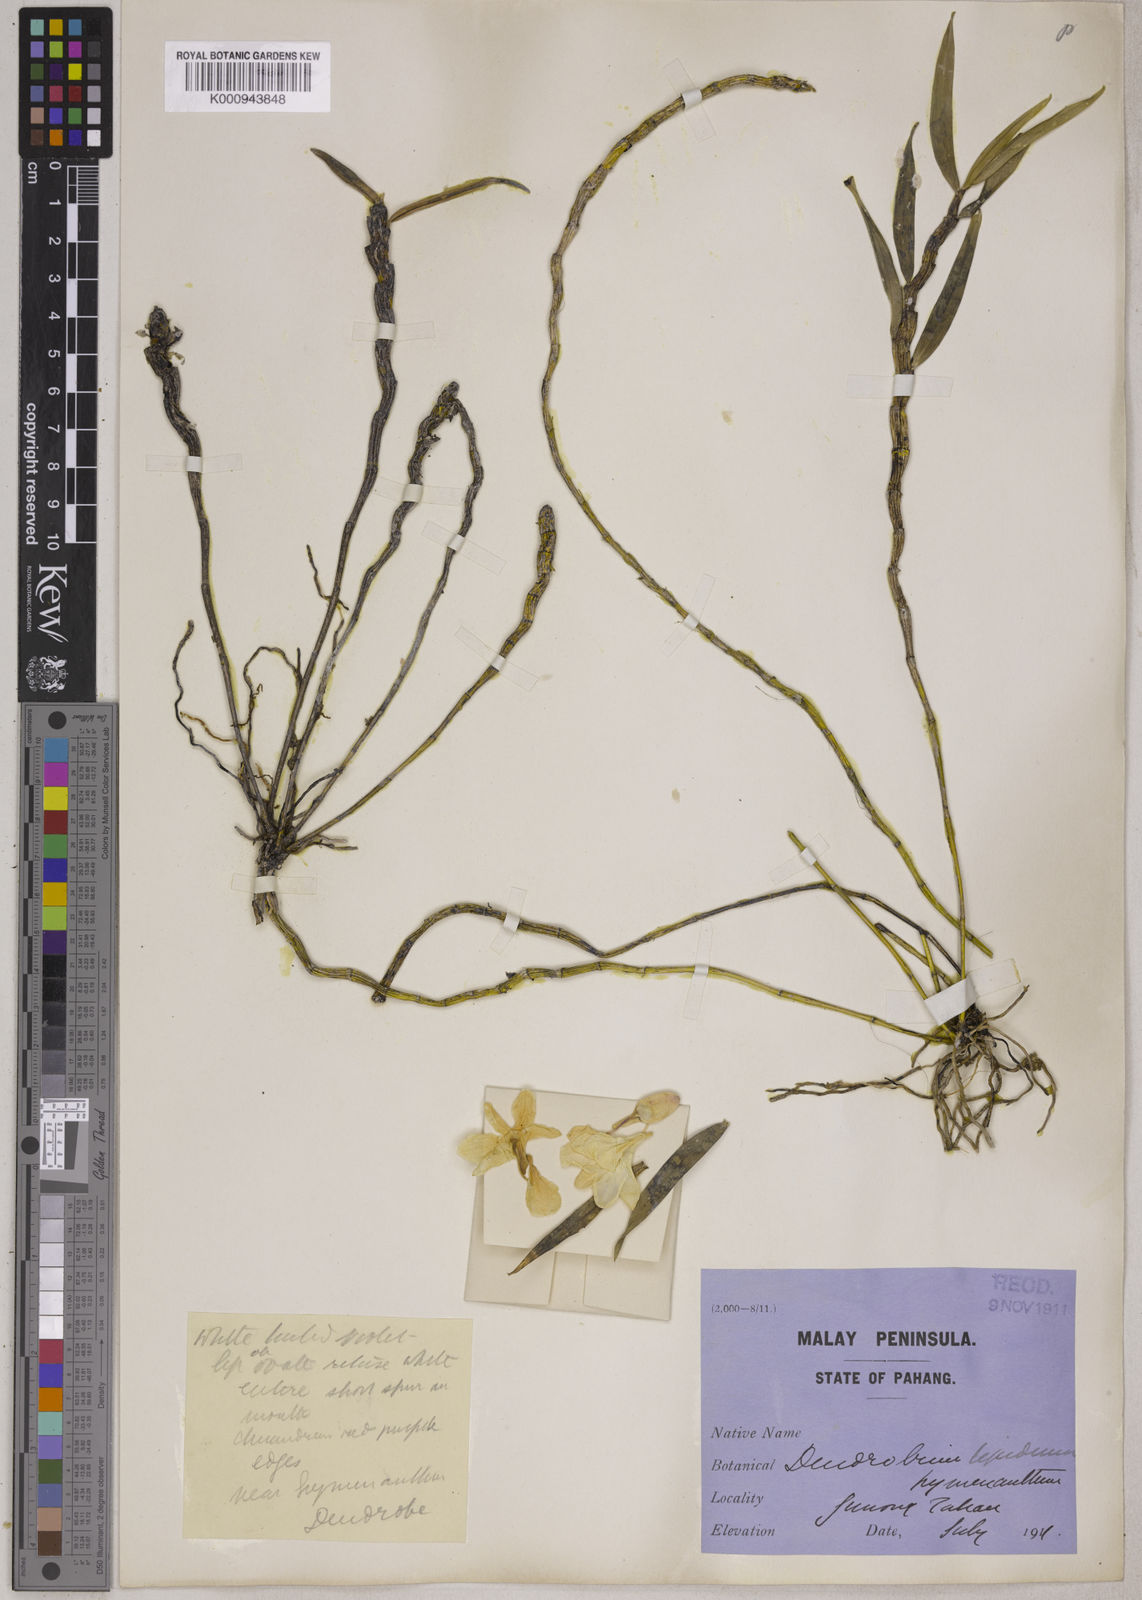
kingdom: Plantae
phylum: Tracheophyta
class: Liliopsida
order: Asparagales
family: Orchidaceae
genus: Dendrobium
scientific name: Dendrobium hughii
